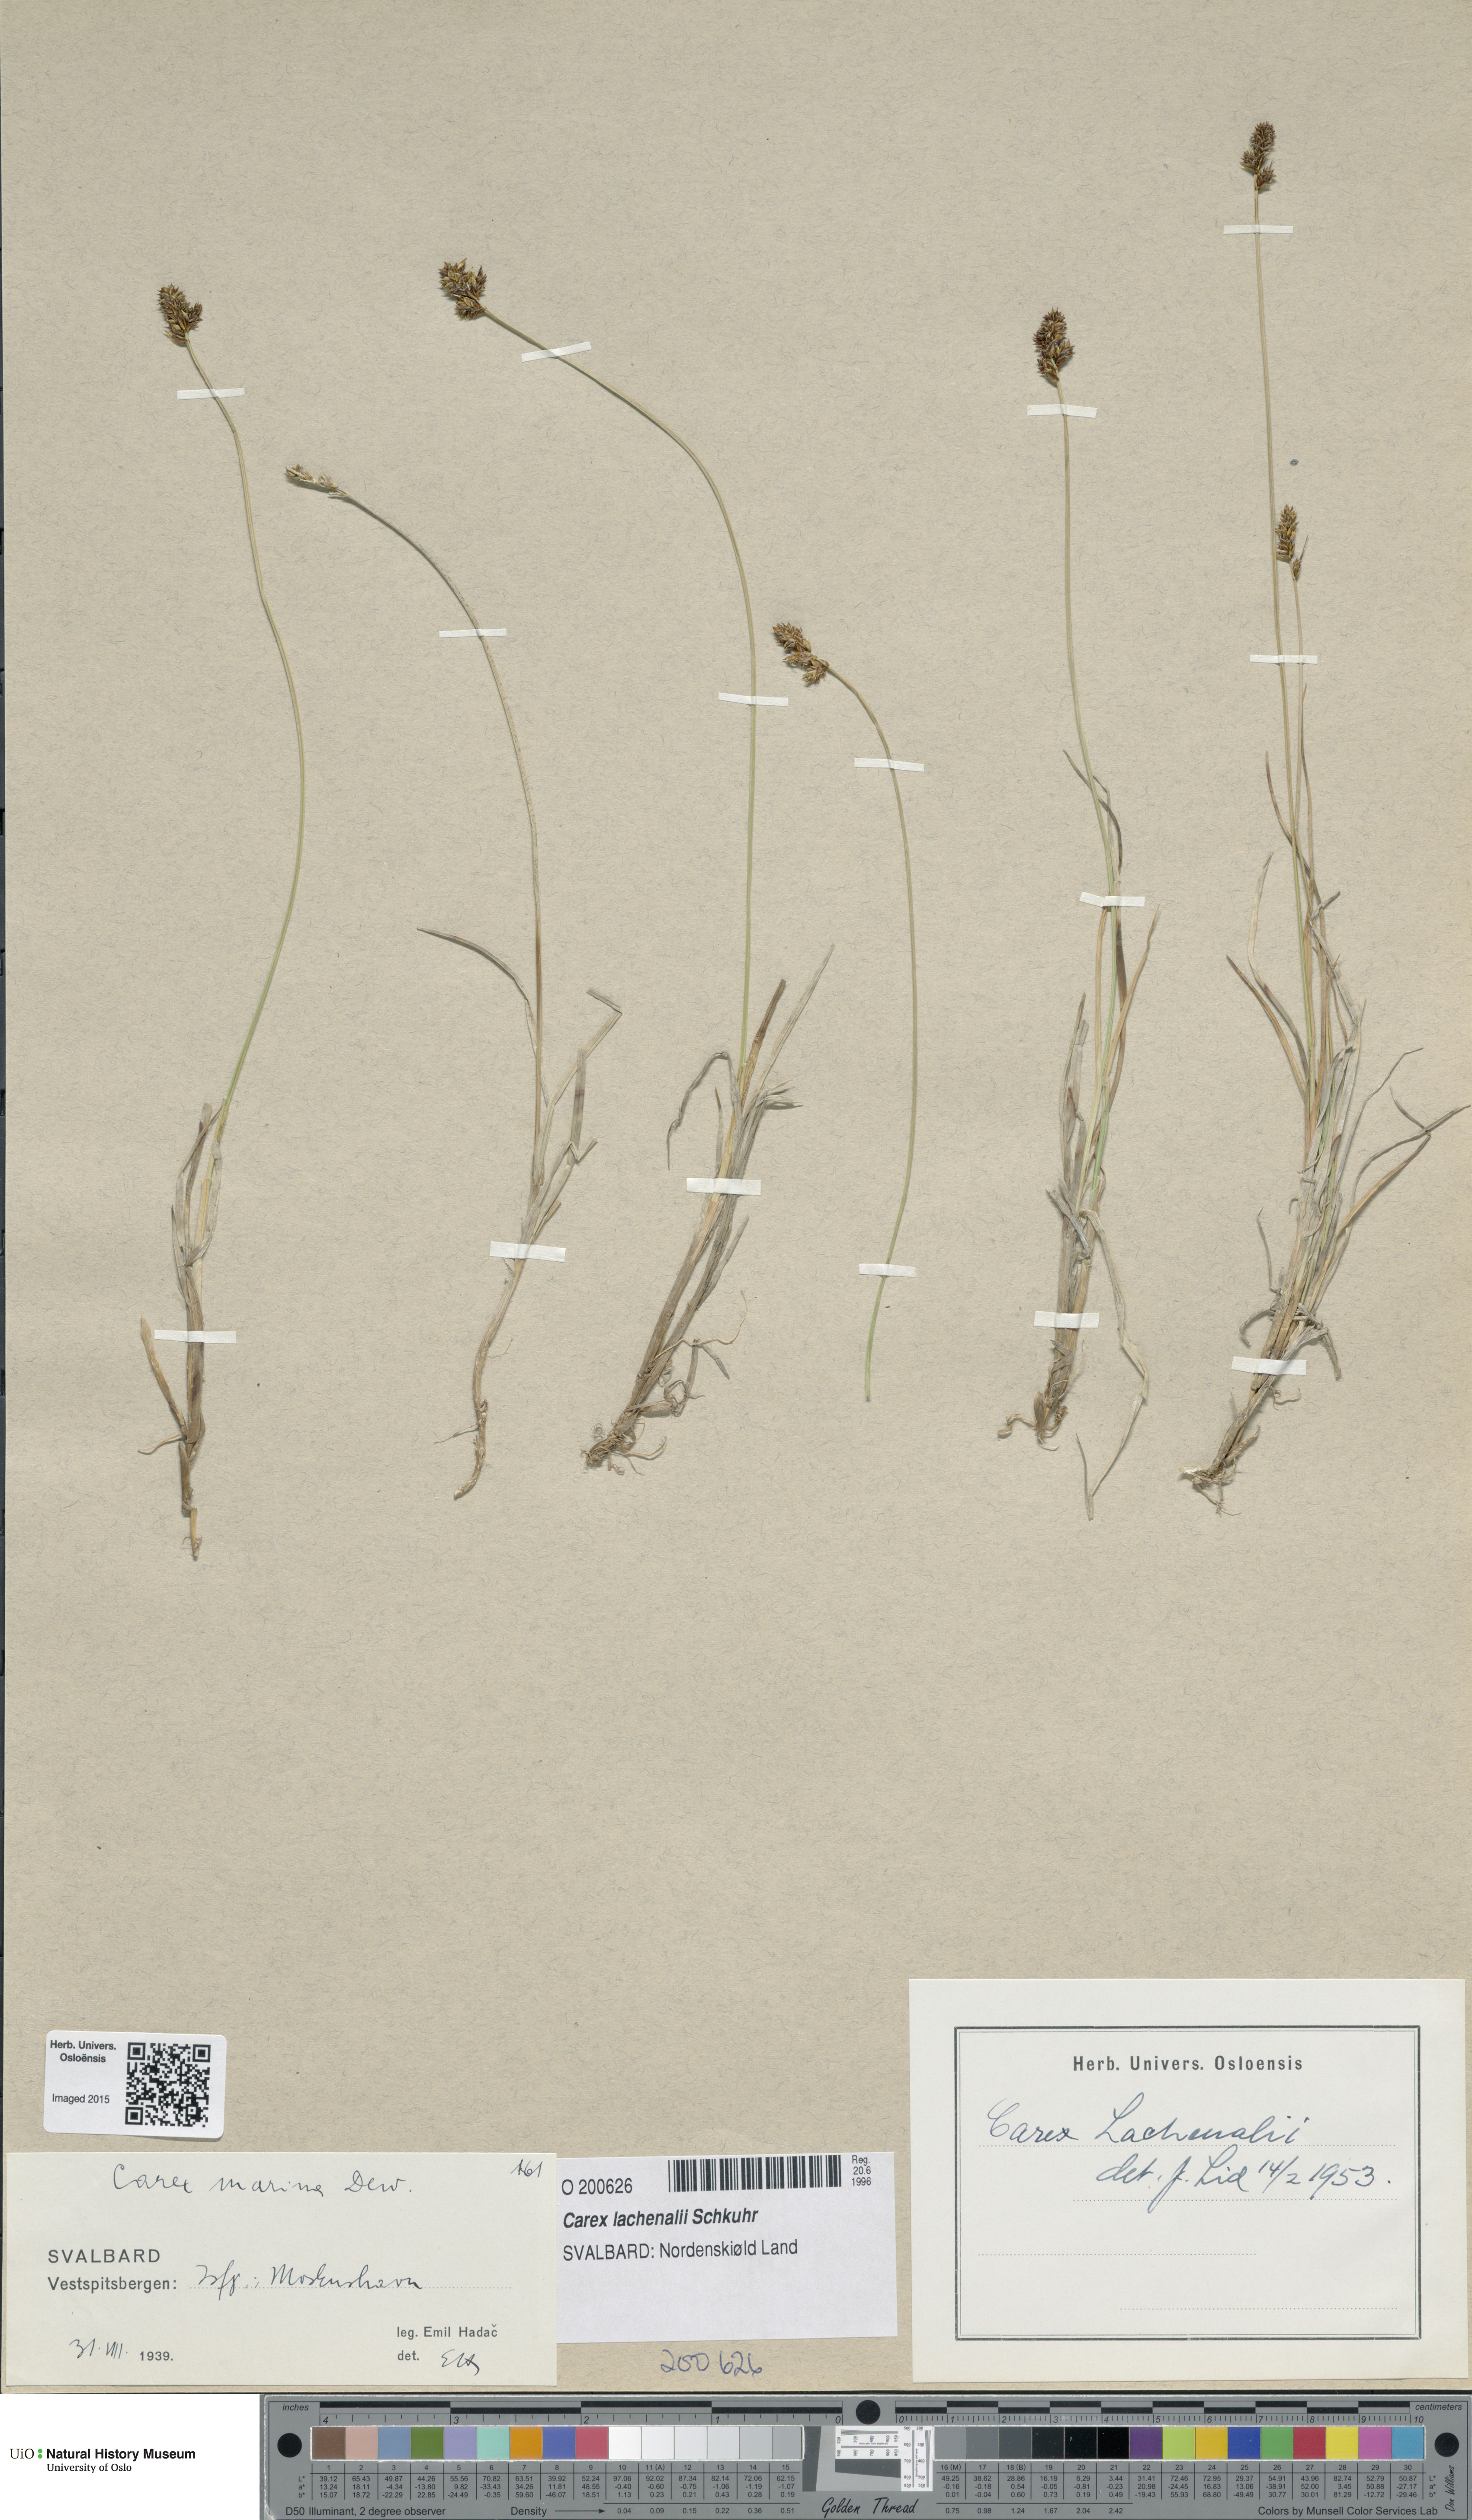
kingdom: Plantae
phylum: Tracheophyta
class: Liliopsida
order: Poales
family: Cyperaceae
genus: Carex
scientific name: Carex lachenalii
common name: Hare's-foot sedge
